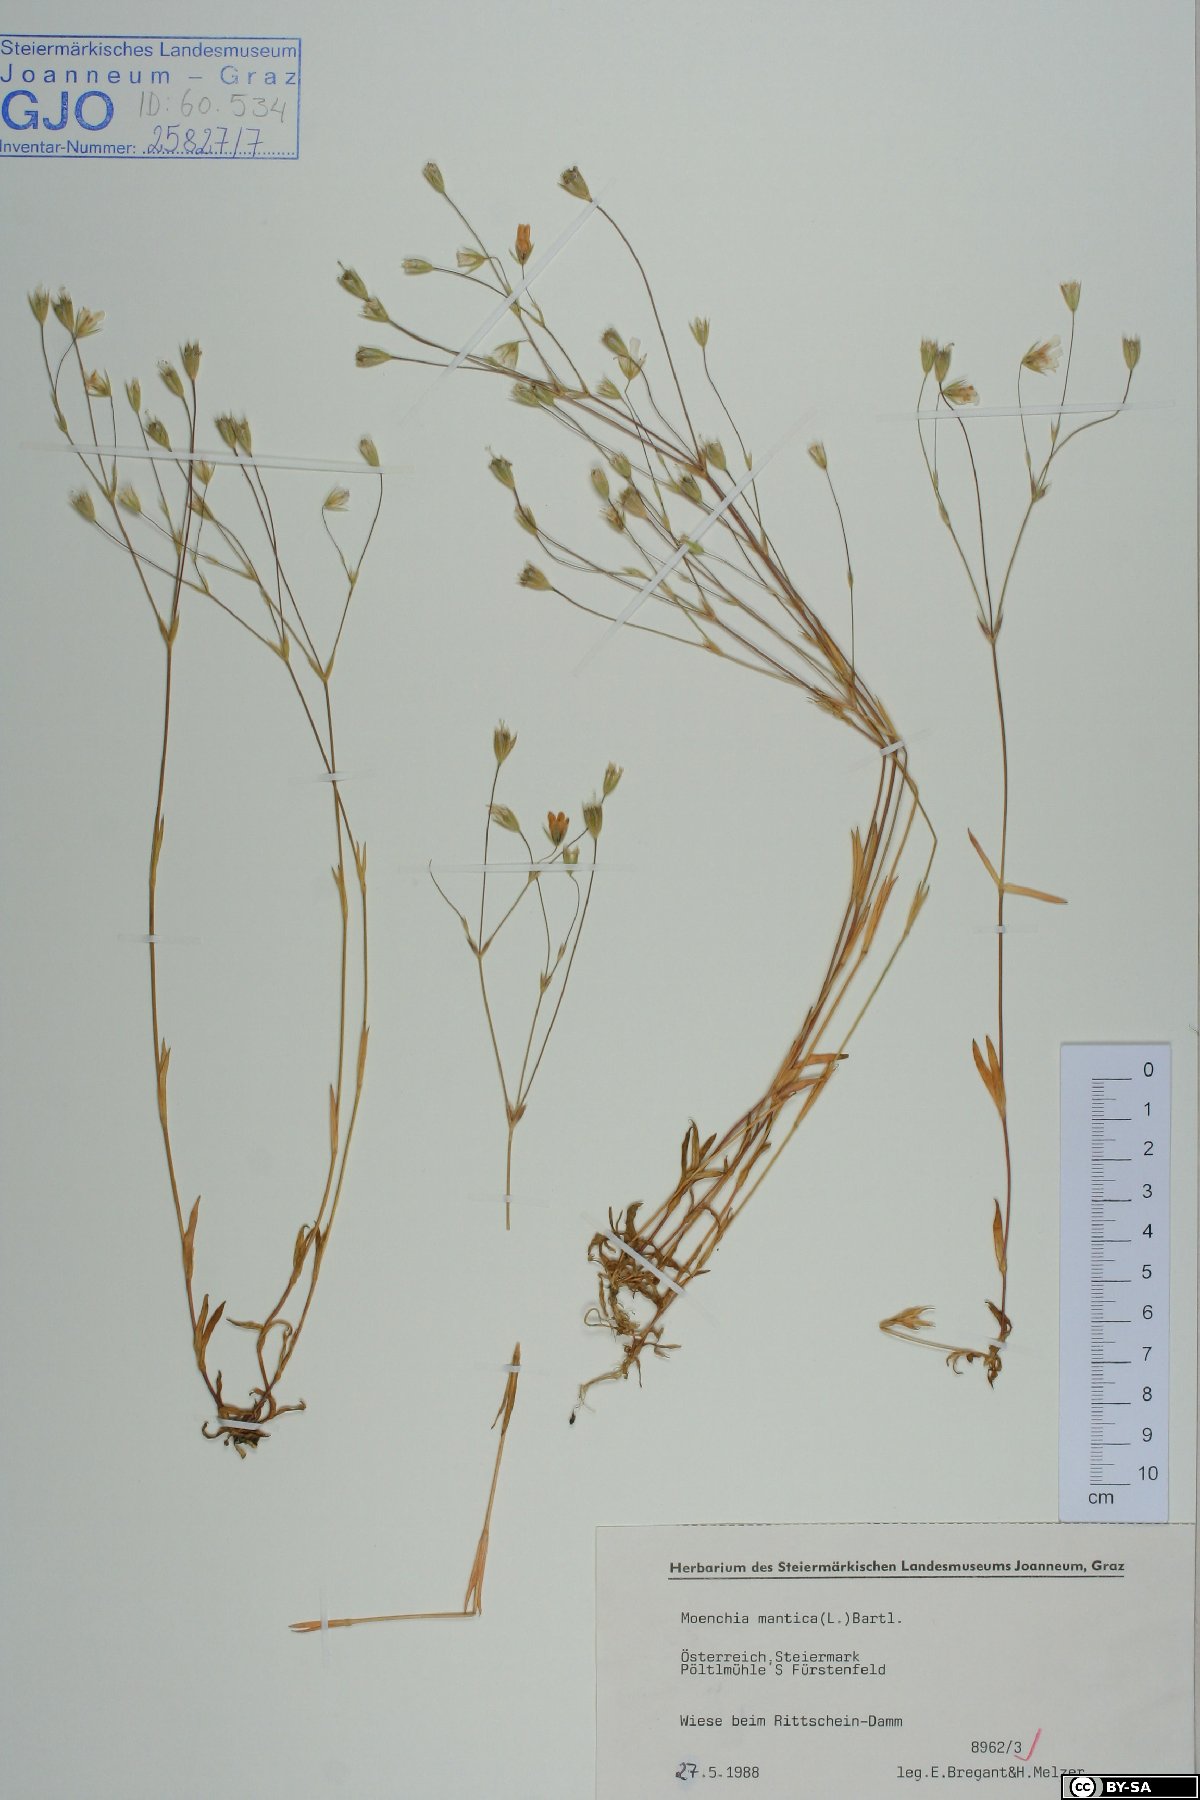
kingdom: Plantae
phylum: Tracheophyta
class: Magnoliopsida
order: Caryophyllales
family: Caryophyllaceae
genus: Moenchia
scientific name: Moenchia mantica
